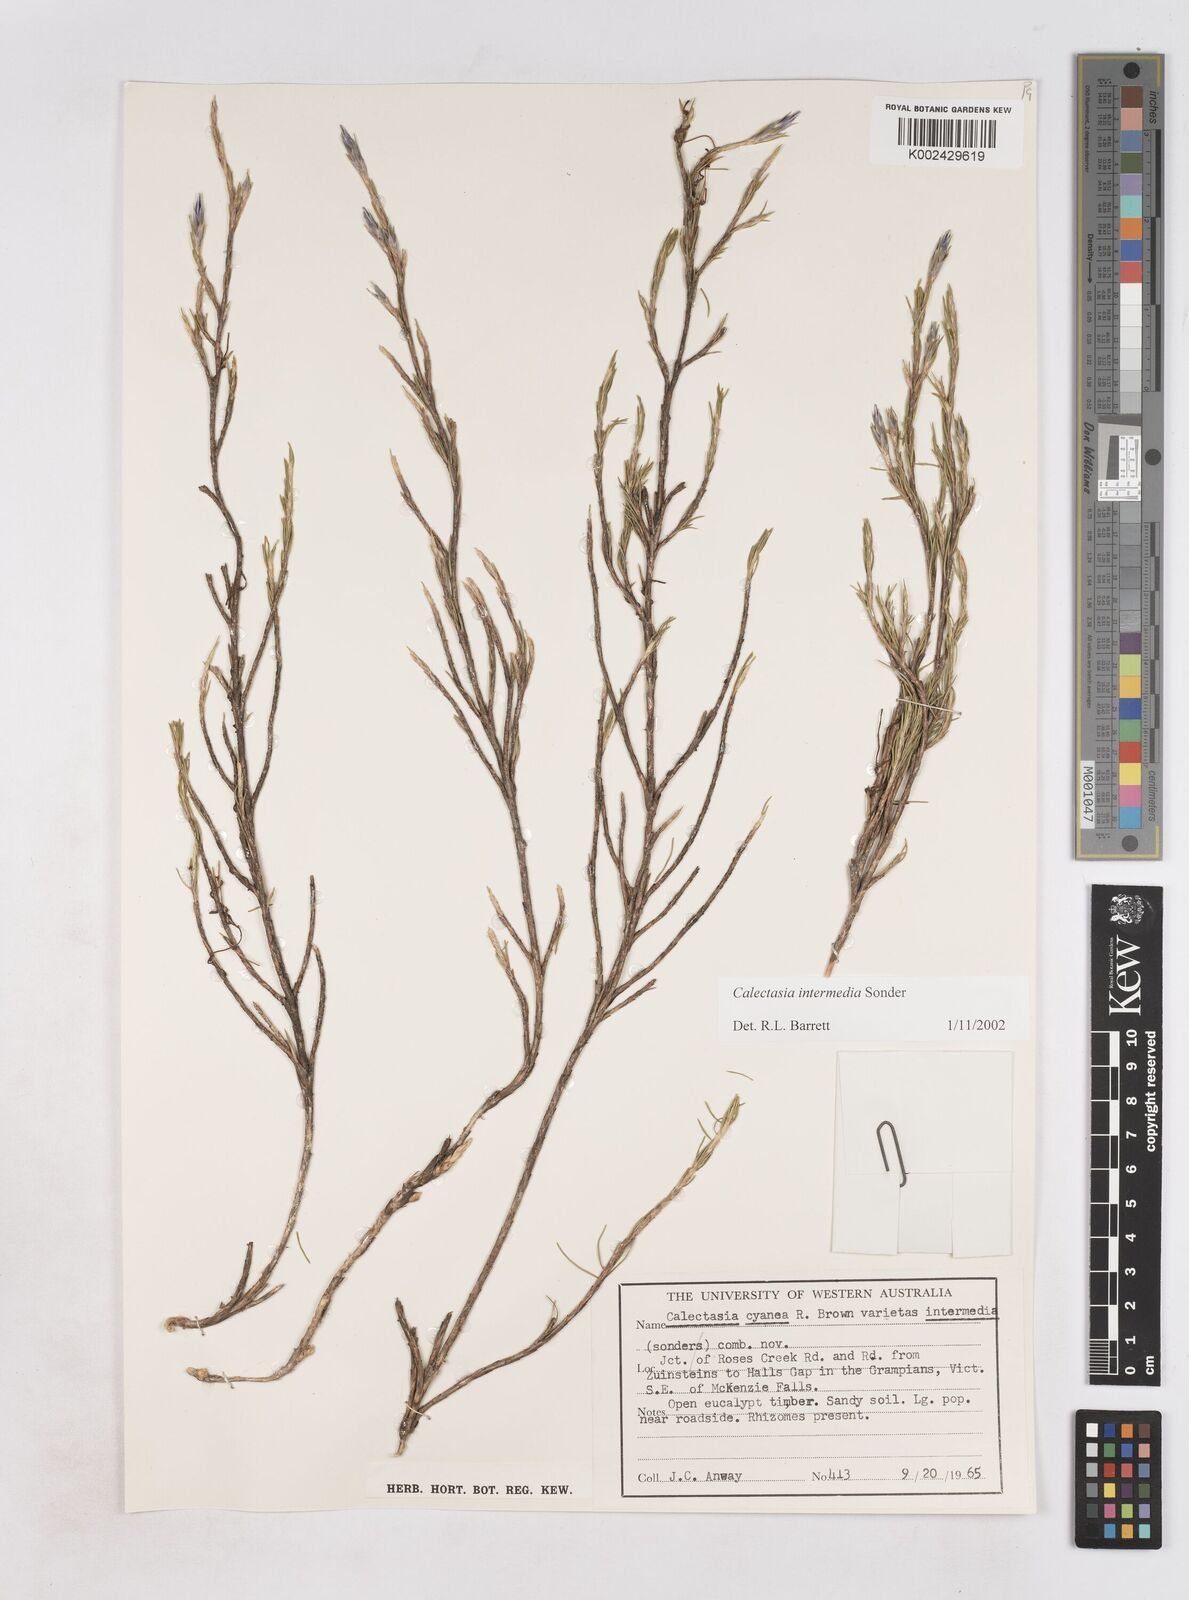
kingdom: Plantae
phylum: Tracheophyta
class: Liliopsida
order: Arecales
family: Dasypogonaceae
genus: Calectasia
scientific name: Calectasia intermedia
